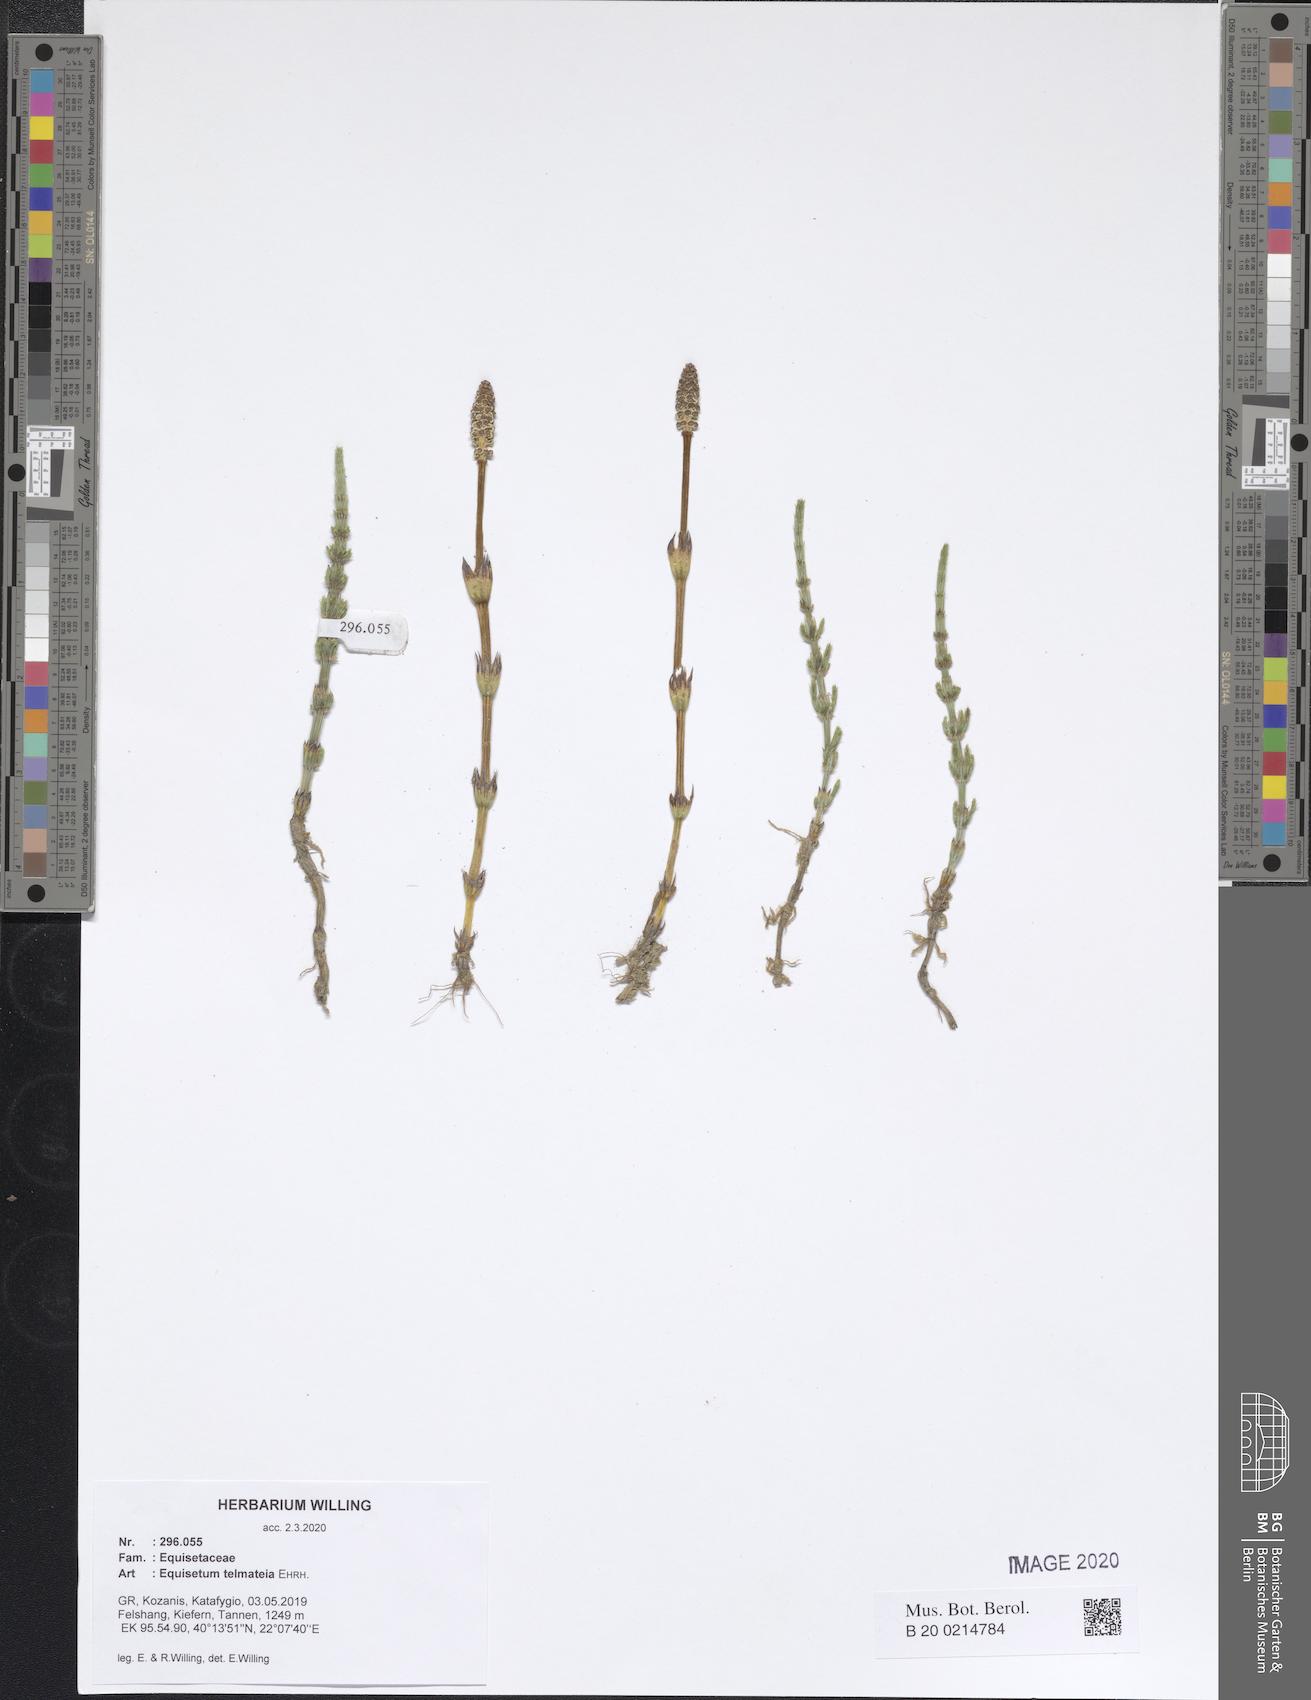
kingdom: Plantae
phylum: Tracheophyta
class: Polypodiopsida
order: Equisetales
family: Equisetaceae
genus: Equisetum
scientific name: Equisetum telmateia
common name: Great horsetail
